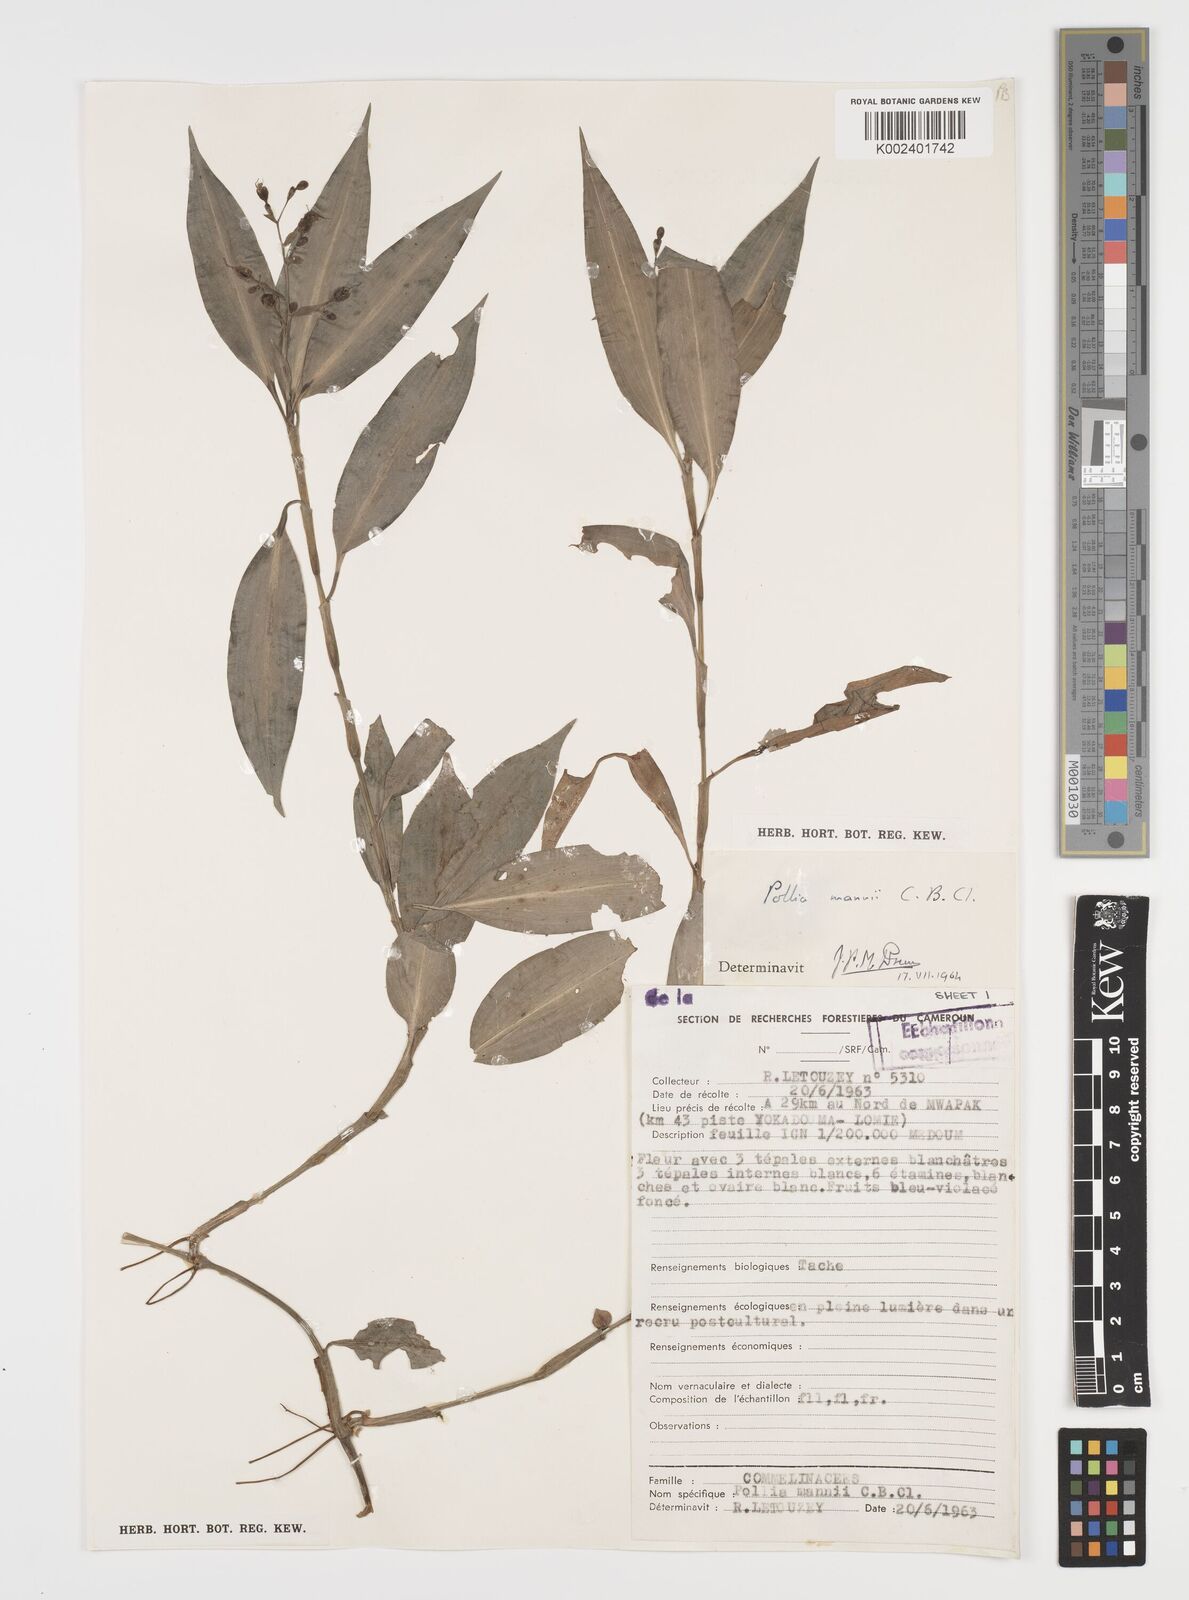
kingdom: Plantae
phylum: Tracheophyta
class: Liliopsida
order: Commelinales
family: Commelinaceae
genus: Pollia
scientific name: Pollia mannii
